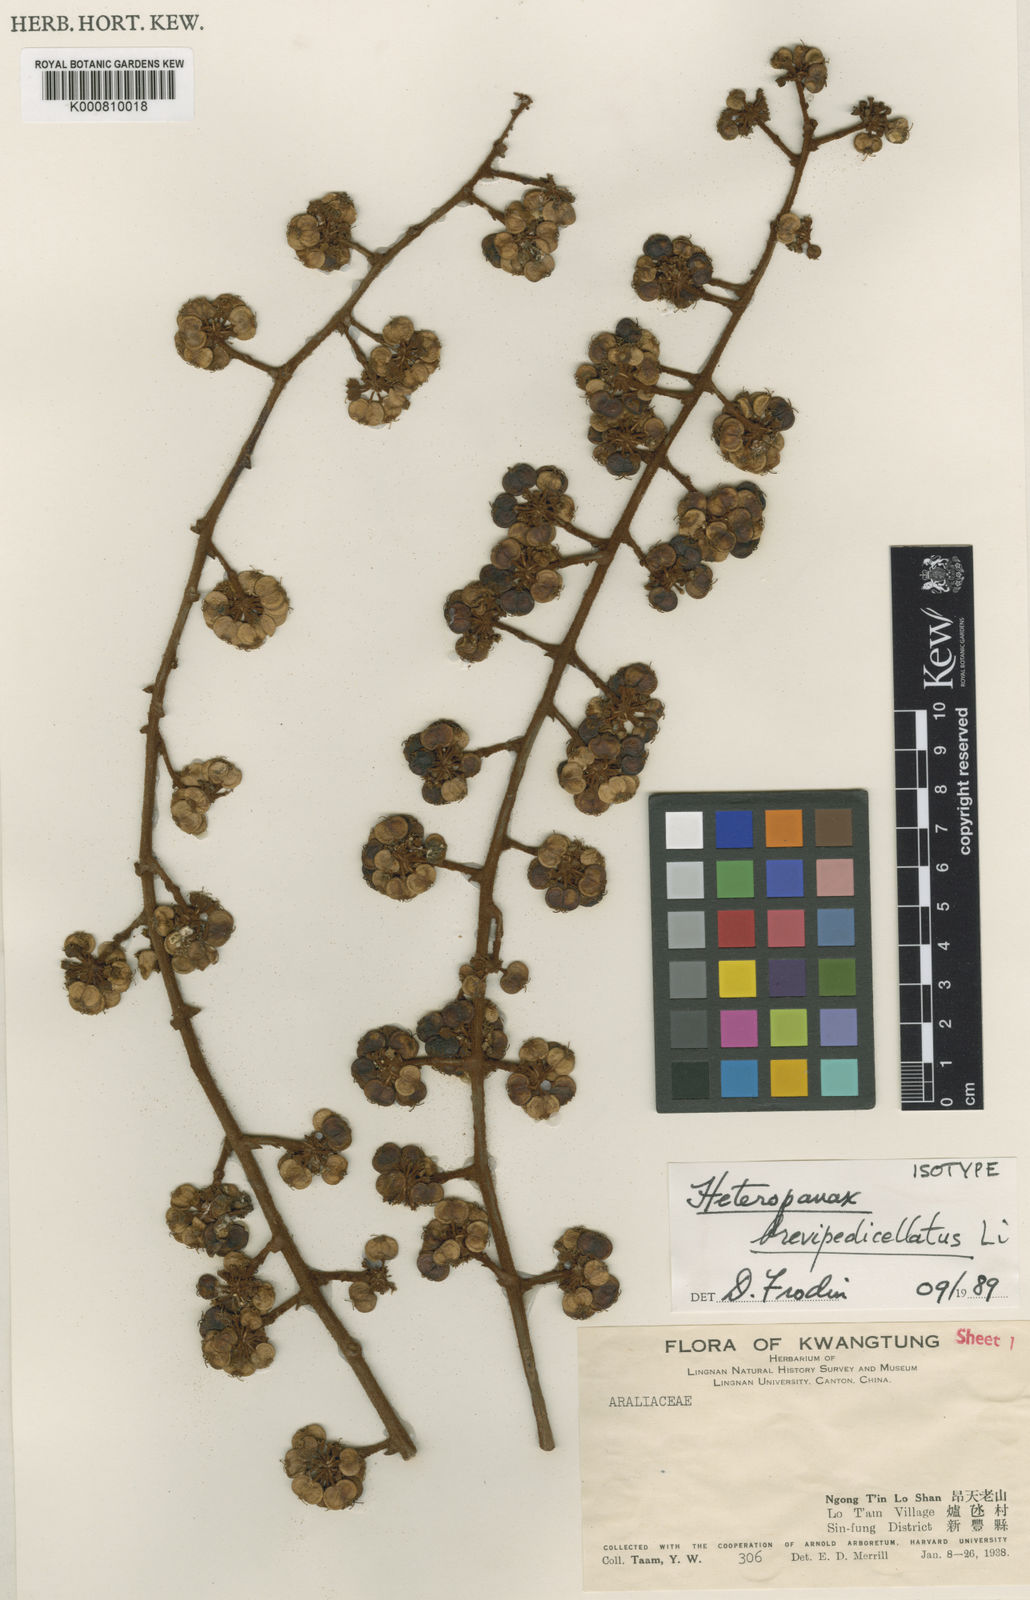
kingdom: Plantae
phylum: Tracheophyta
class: Magnoliopsida
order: Apiales
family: Araliaceae
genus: Heteropanax
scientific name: Heteropanax brevipedicellatus
